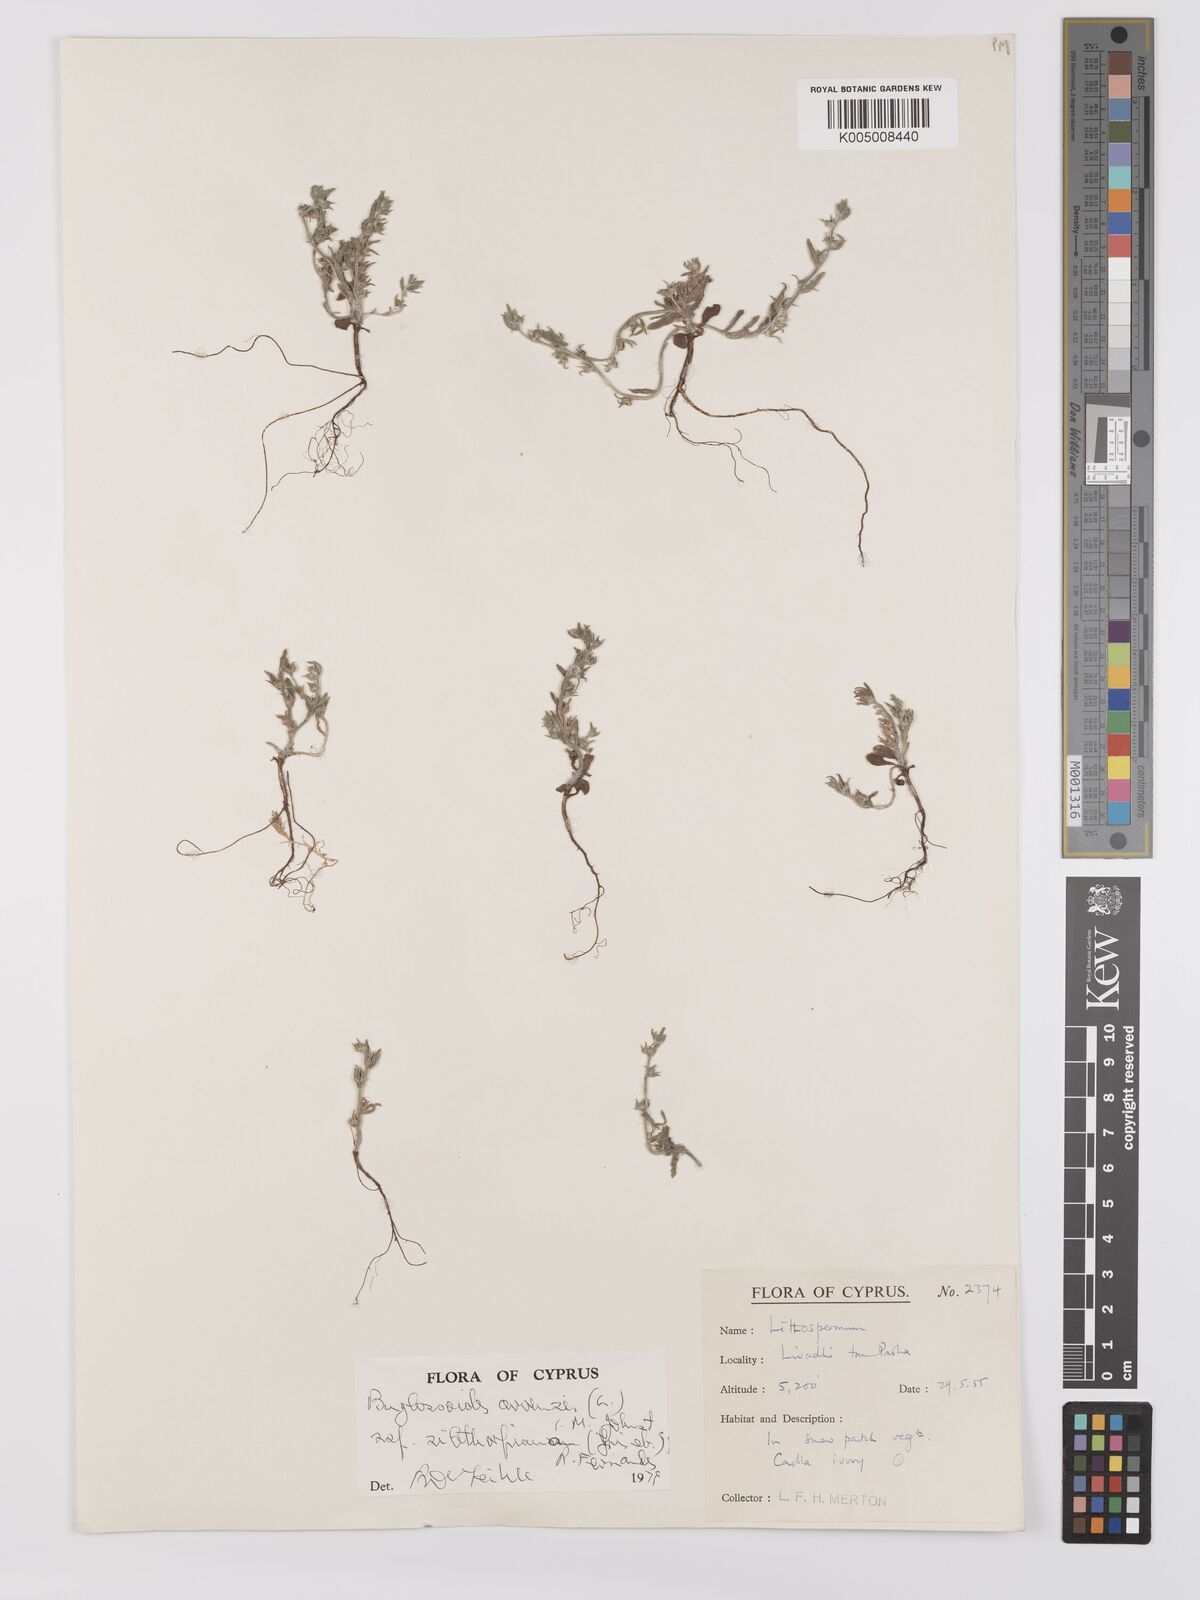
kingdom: Plantae
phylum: Tracheophyta
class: Magnoliopsida
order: Boraginales
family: Boraginaceae
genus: Buglossoides
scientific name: Buglossoides
